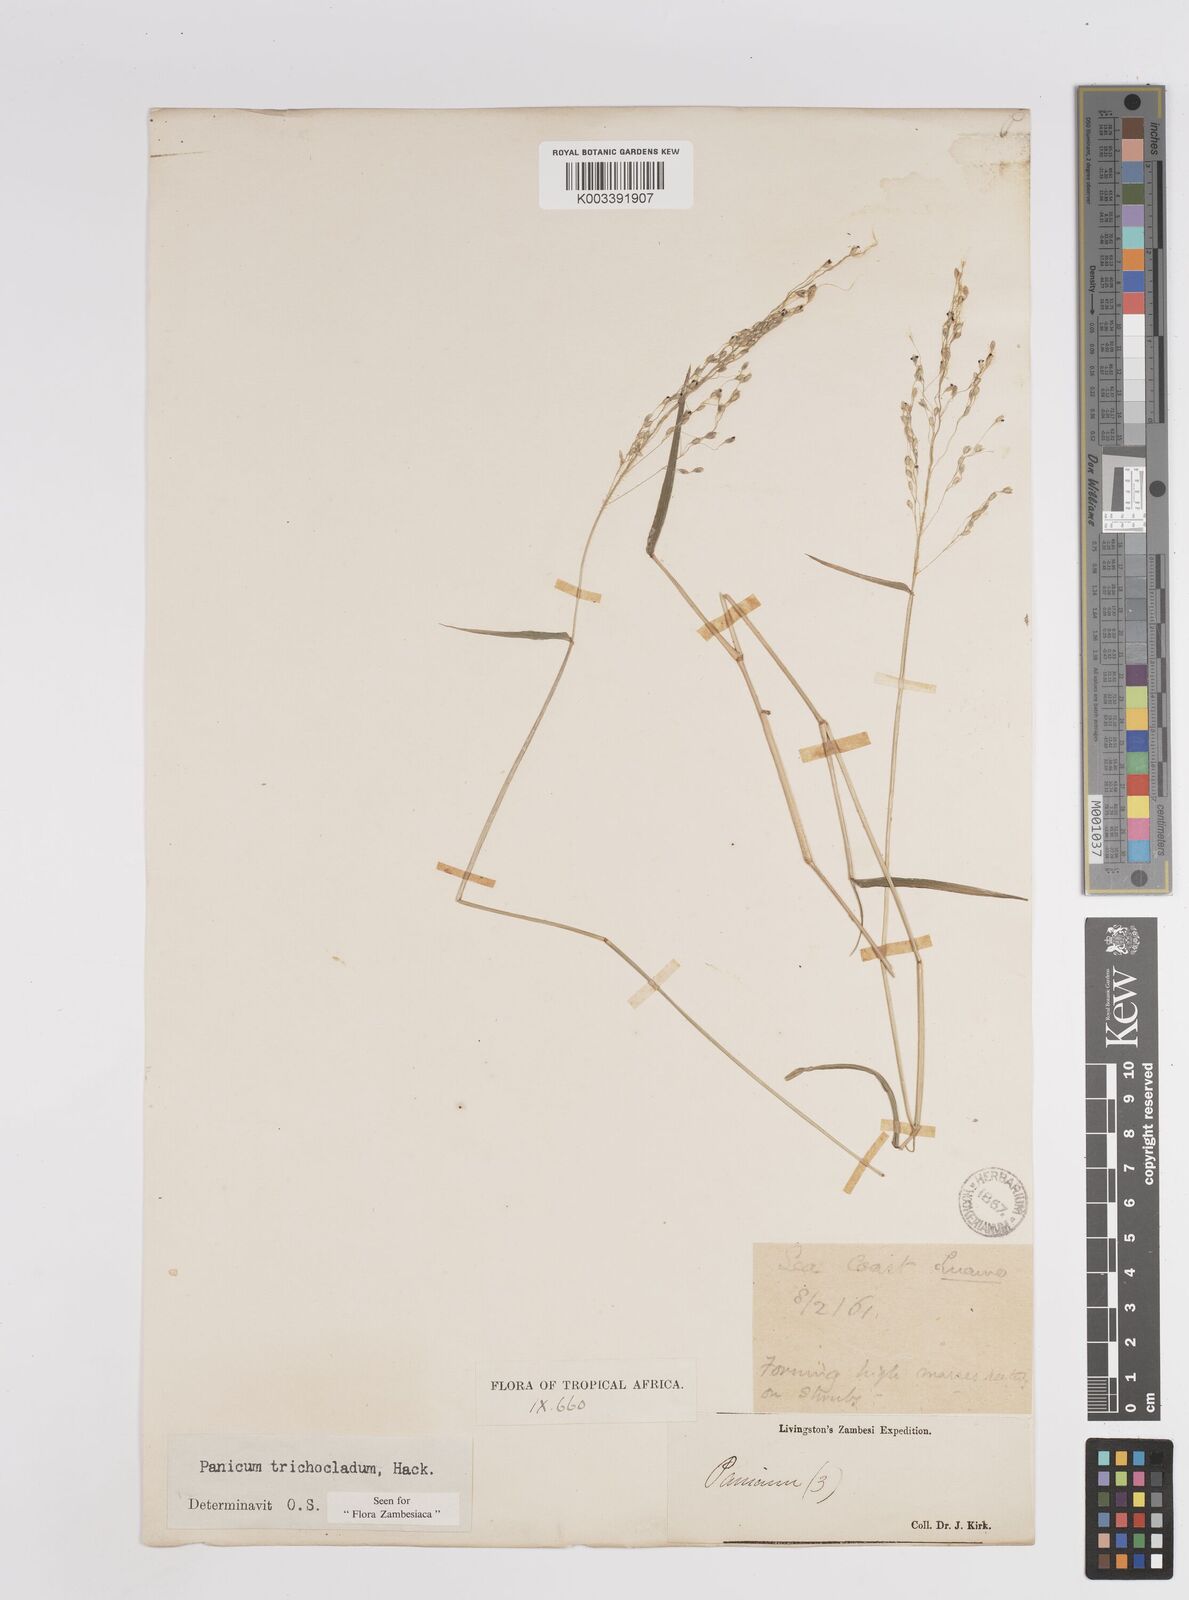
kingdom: Plantae
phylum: Tracheophyta
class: Liliopsida
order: Poales
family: Poaceae
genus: Panicum
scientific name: Panicum trichocladum
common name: Donkey grass
